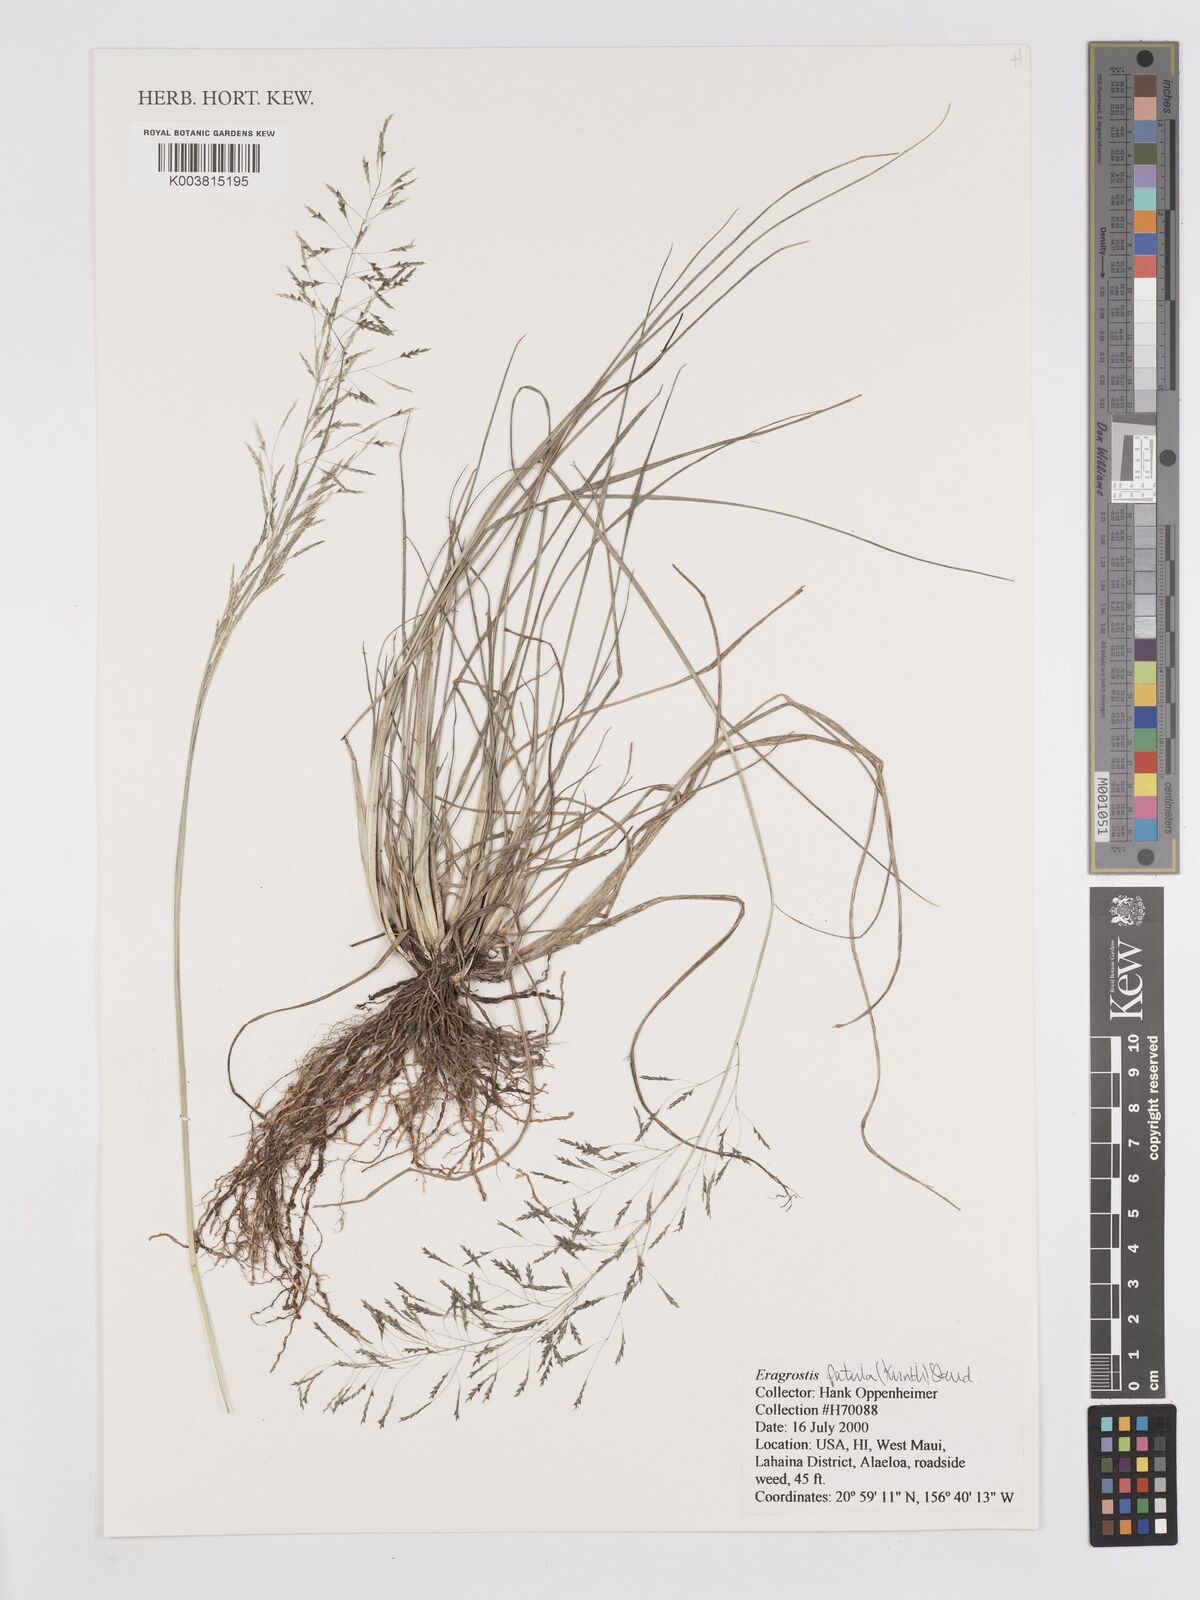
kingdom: Plantae
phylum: Tracheophyta
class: Liliopsida
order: Poales
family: Poaceae
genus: Eragrostis
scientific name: Eragrostis tenuifolia
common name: Elastic grass
